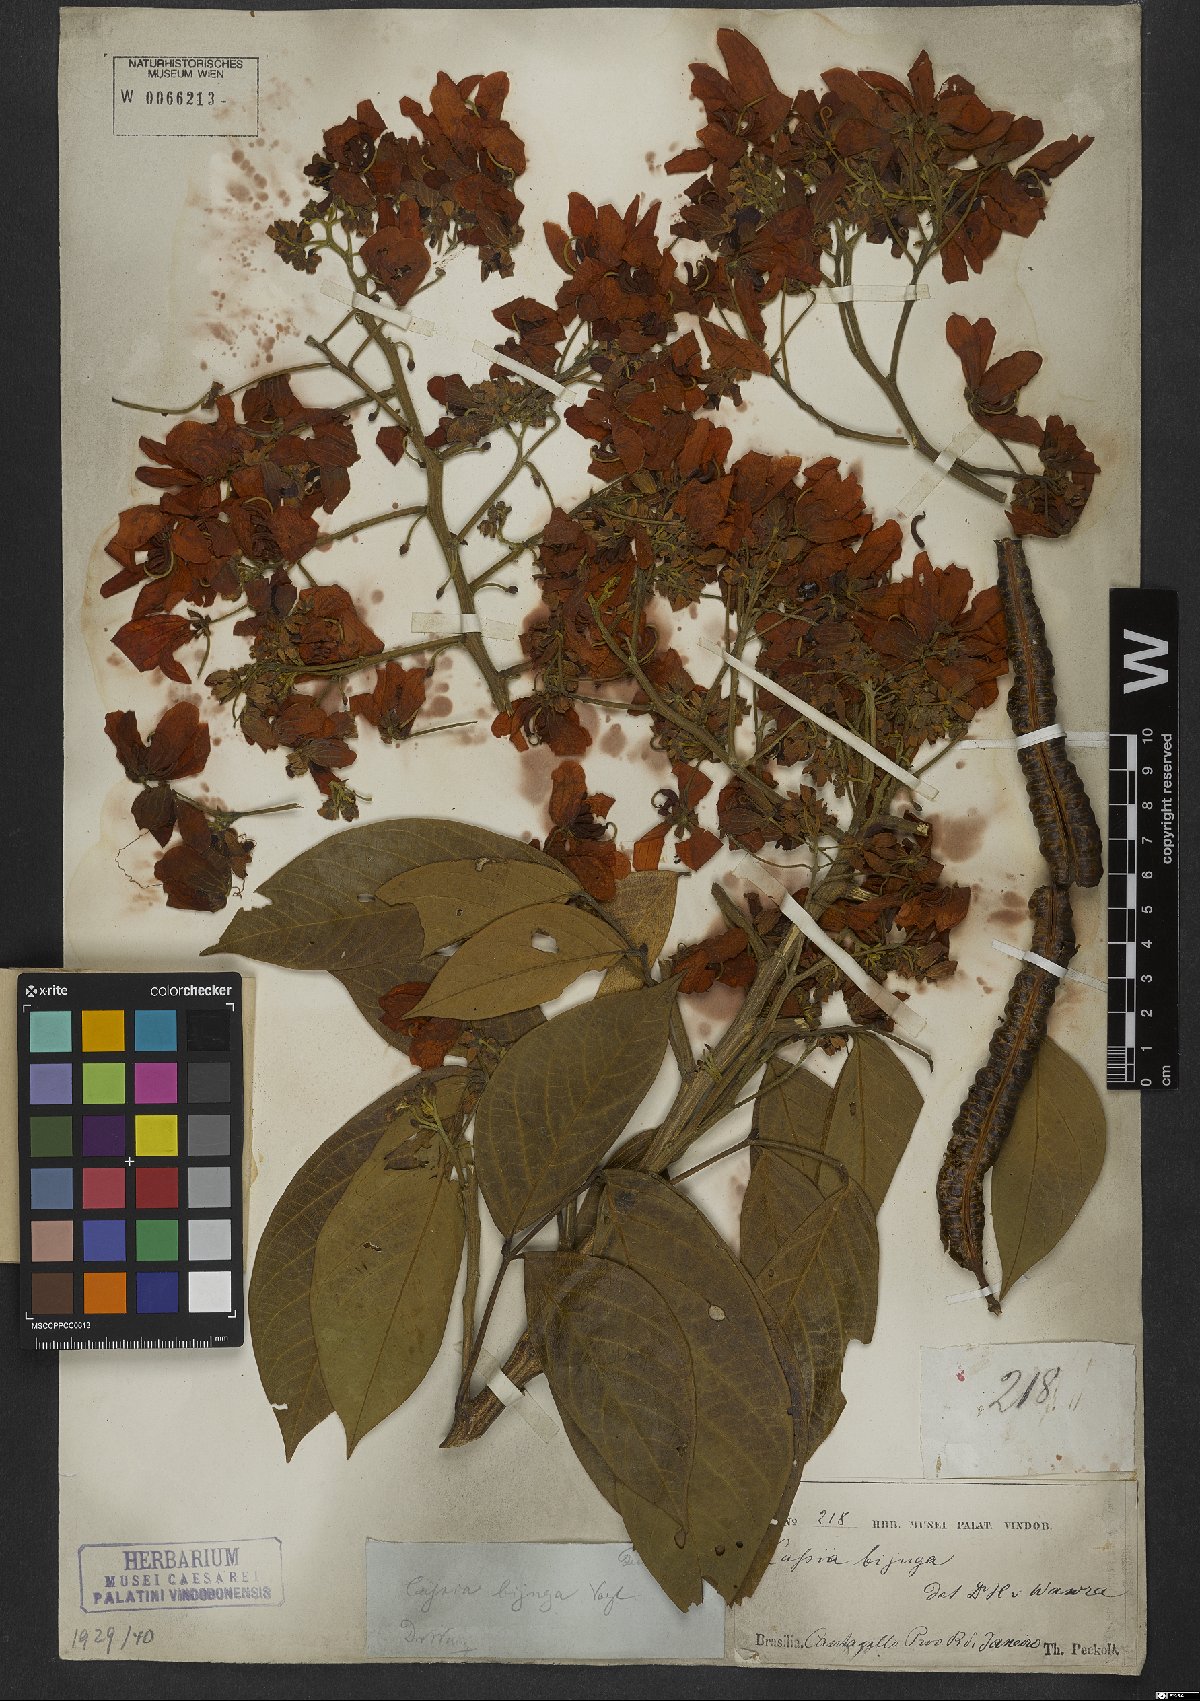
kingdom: Plantae
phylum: Tracheophyta
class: Magnoliopsida
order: Fabales
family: Fabaceae
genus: Senna
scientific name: Senna macranthera
